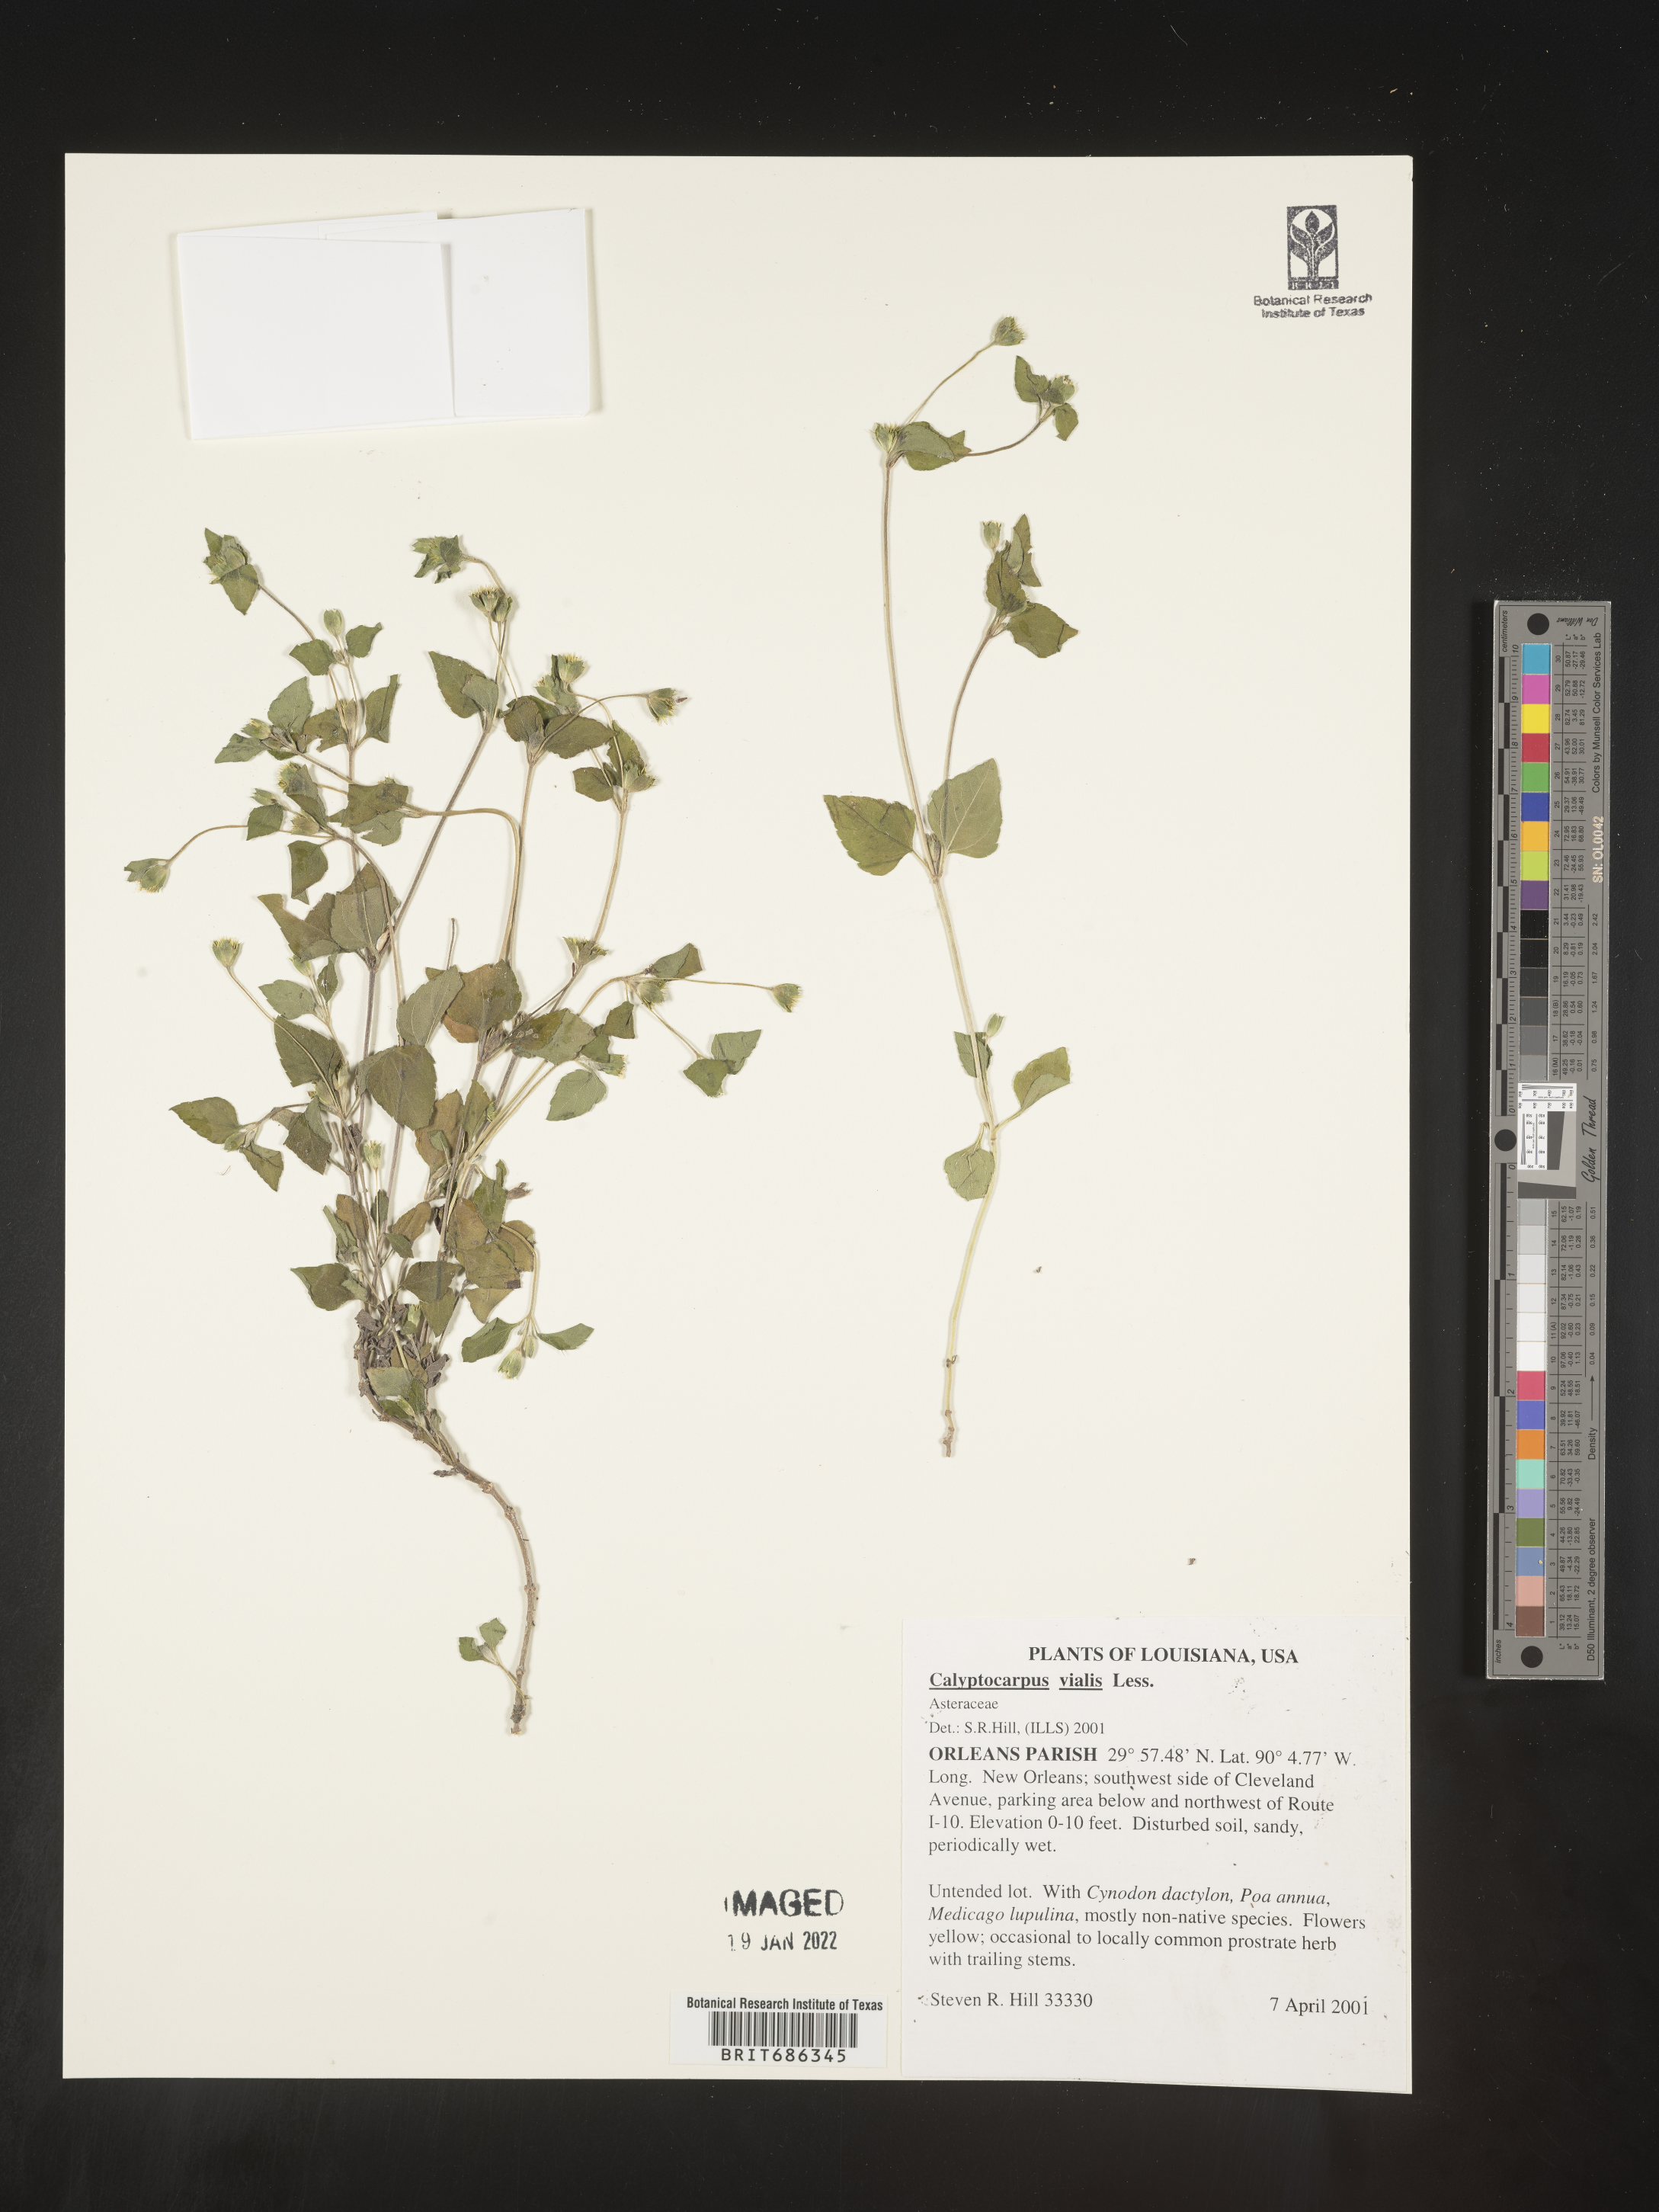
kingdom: Plantae
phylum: Tracheophyta
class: Magnoliopsida
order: Asterales
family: Asteraceae
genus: Calyptocarpus
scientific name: Calyptocarpus
